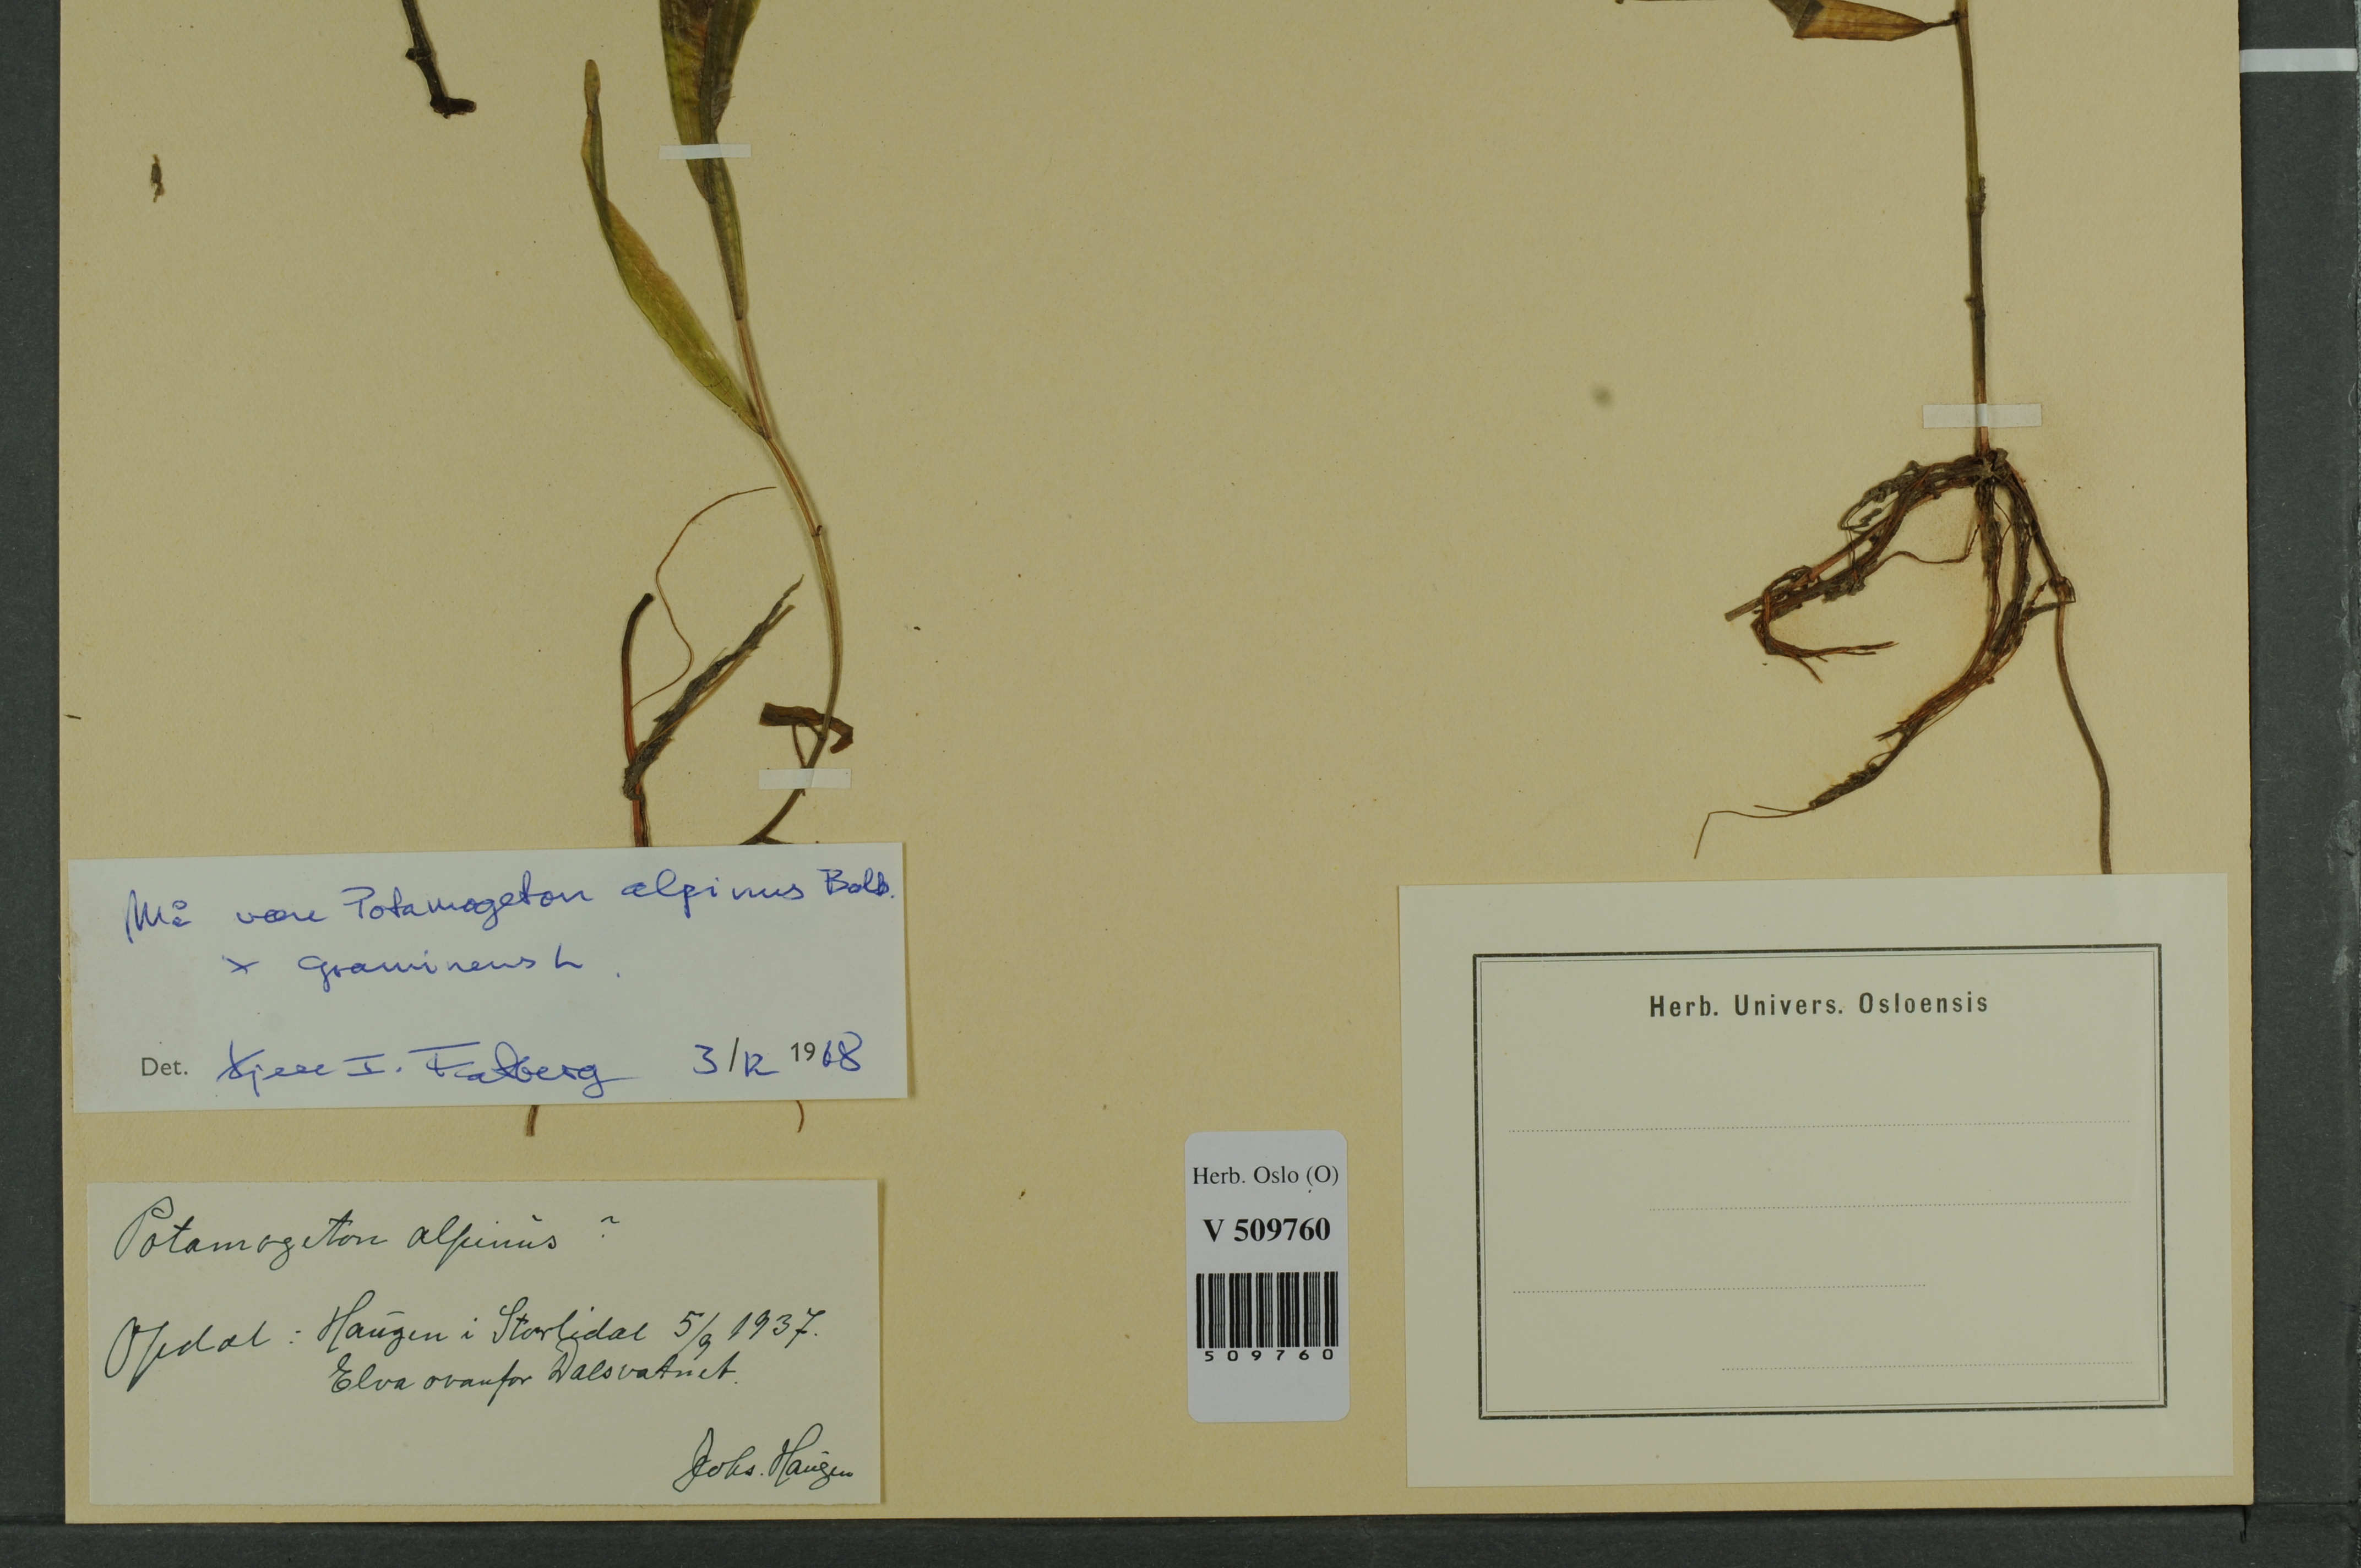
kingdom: Plantae
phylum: Tracheophyta
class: Liliopsida
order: Alismatales
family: Potamogetonaceae
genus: Potamogeton
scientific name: Potamogeton alpinus
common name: Red pondweed
